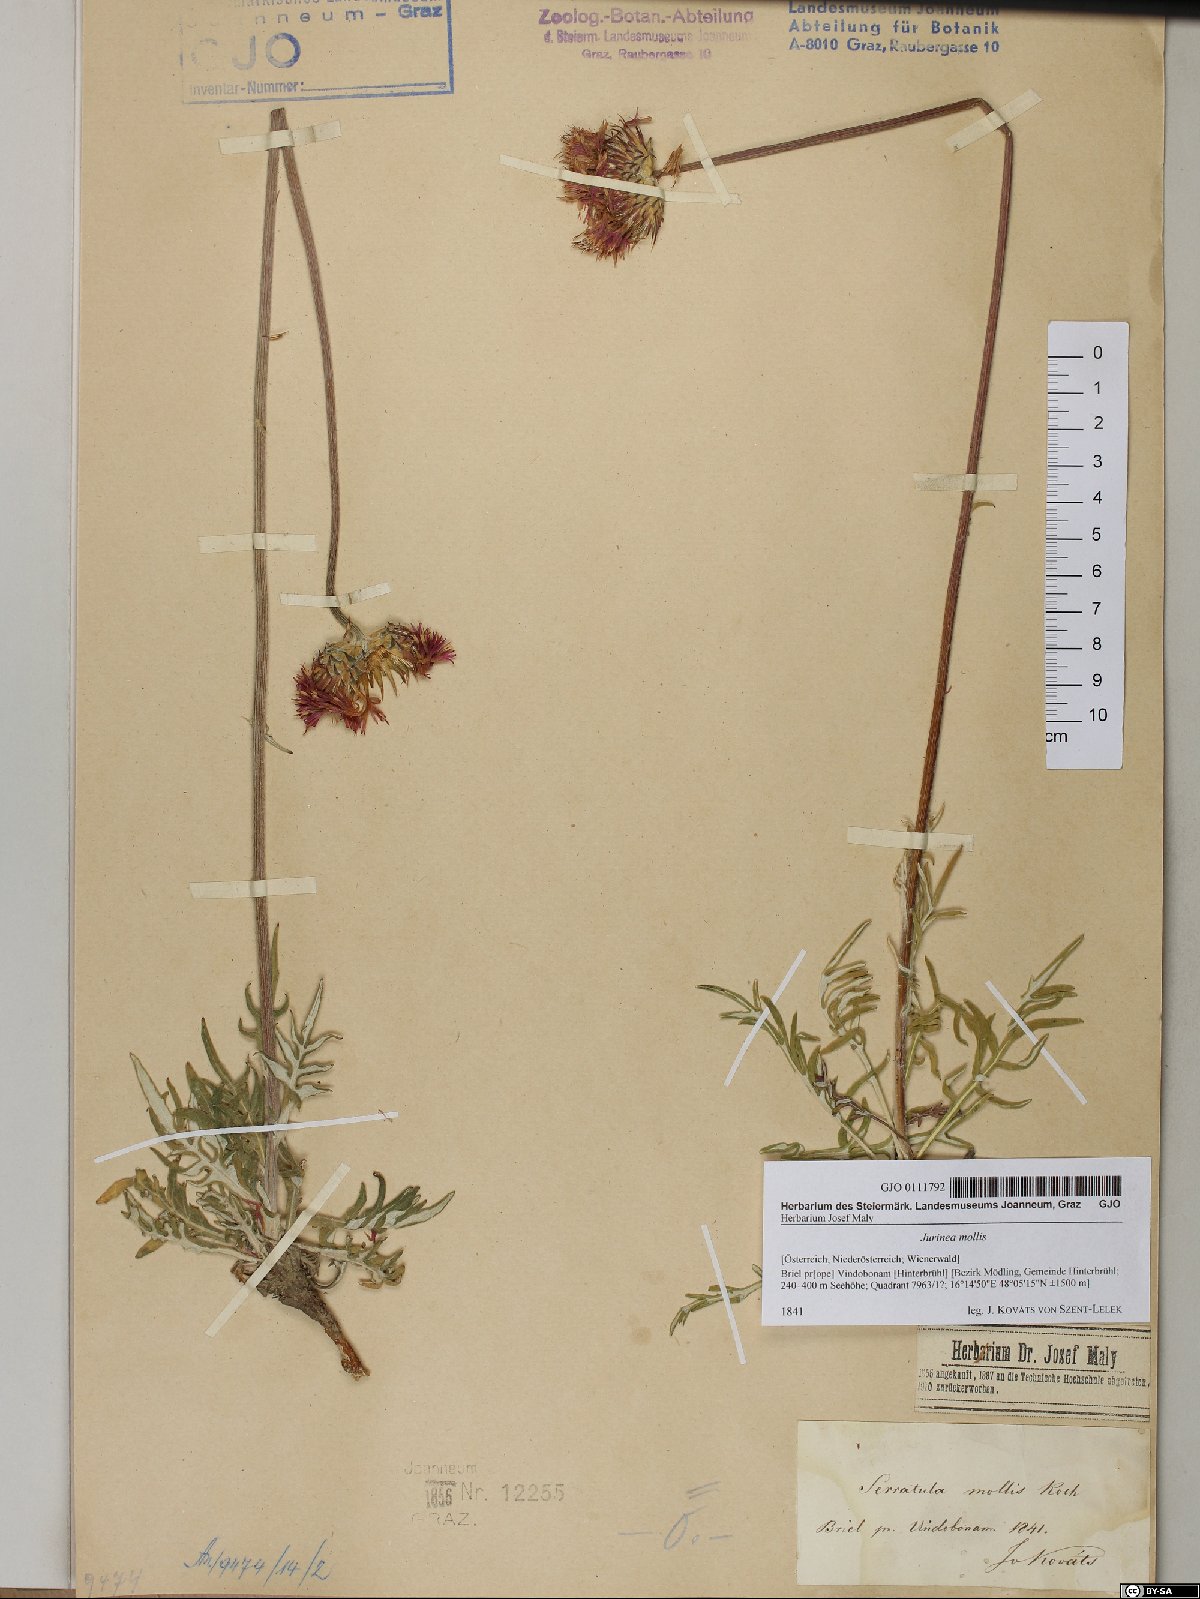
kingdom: Plantae
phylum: Tracheophyta
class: Magnoliopsida
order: Asterales
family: Asteraceae
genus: Jurinea
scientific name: Jurinea mollis
